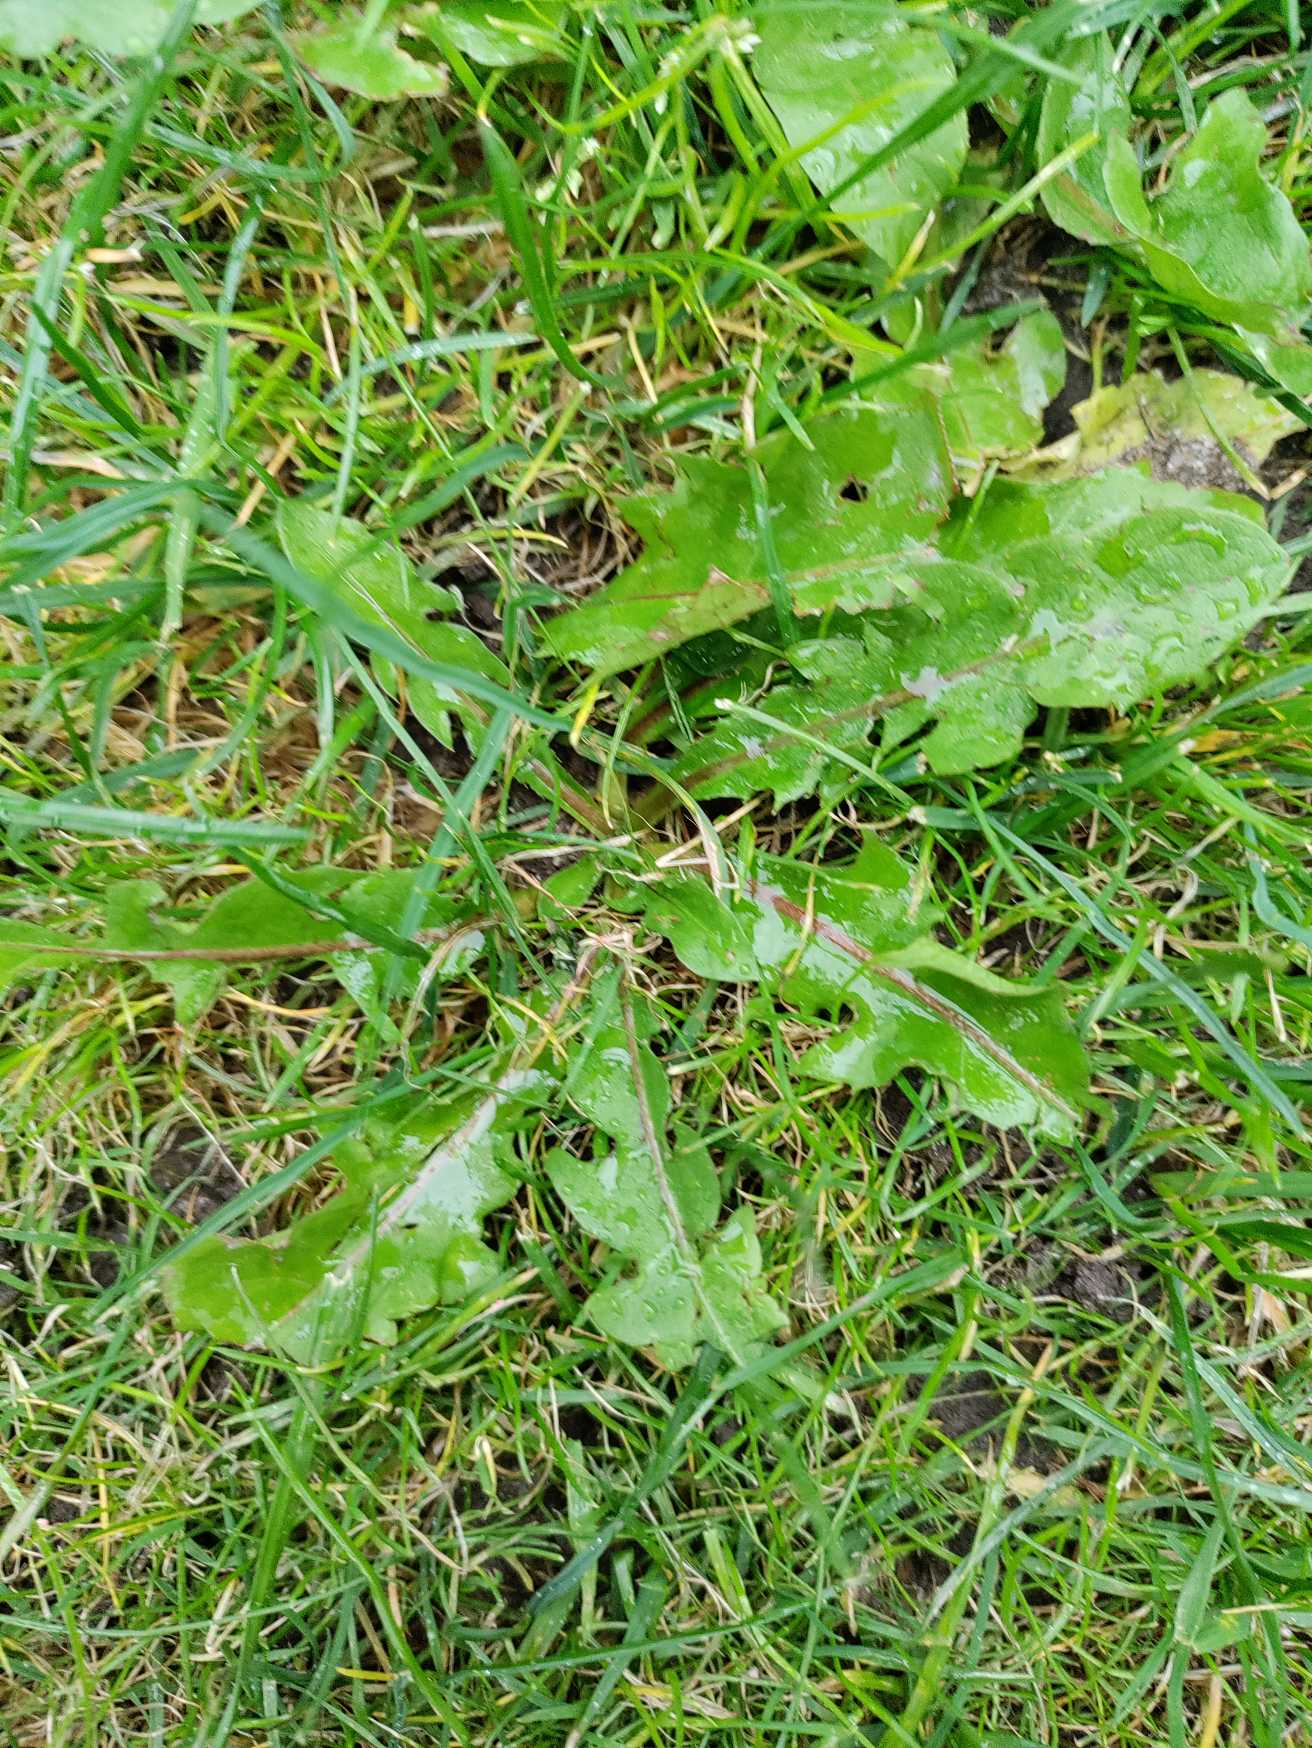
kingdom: Plantae
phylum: Tracheophyta
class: Magnoliopsida
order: Asterales
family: Asteraceae
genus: Taraxacum
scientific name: Taraxacum
